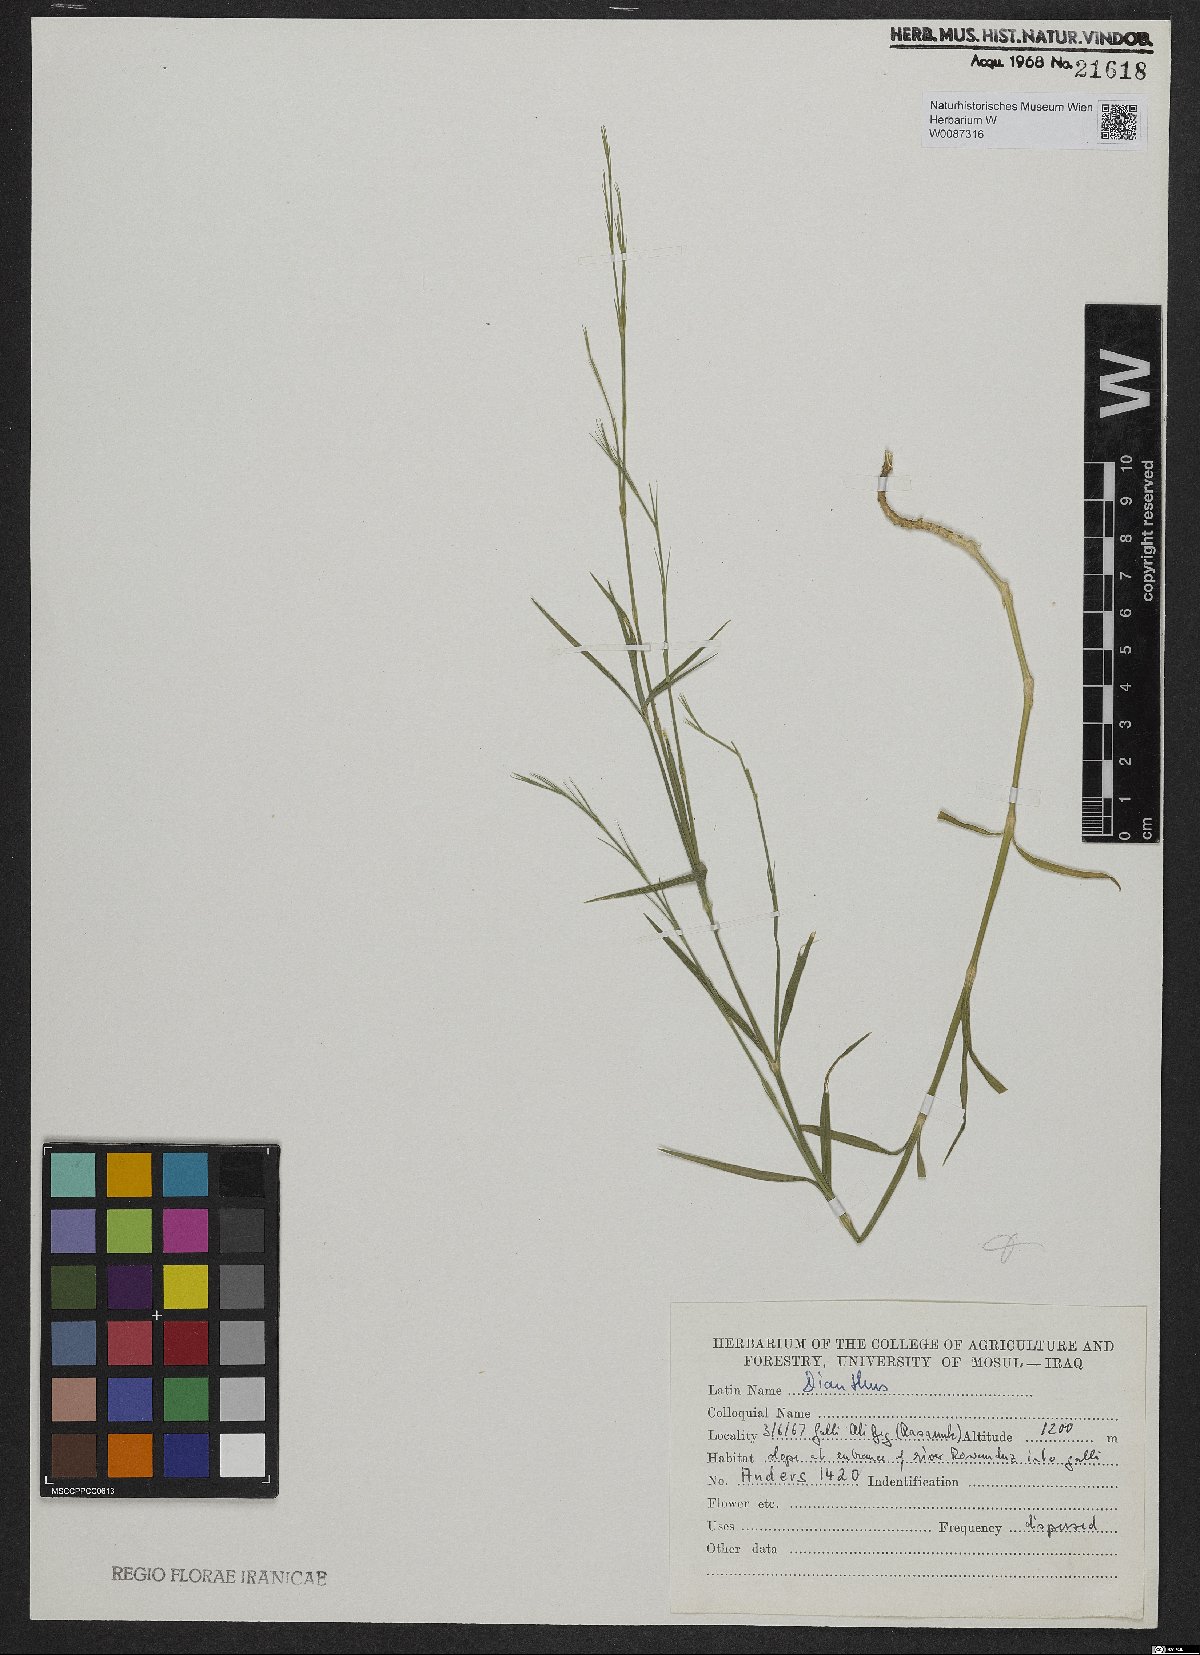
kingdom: Plantae
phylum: Tracheophyta
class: Magnoliopsida
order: Caryophyllales
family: Caryophyllaceae
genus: Dianthus
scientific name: Dianthus
